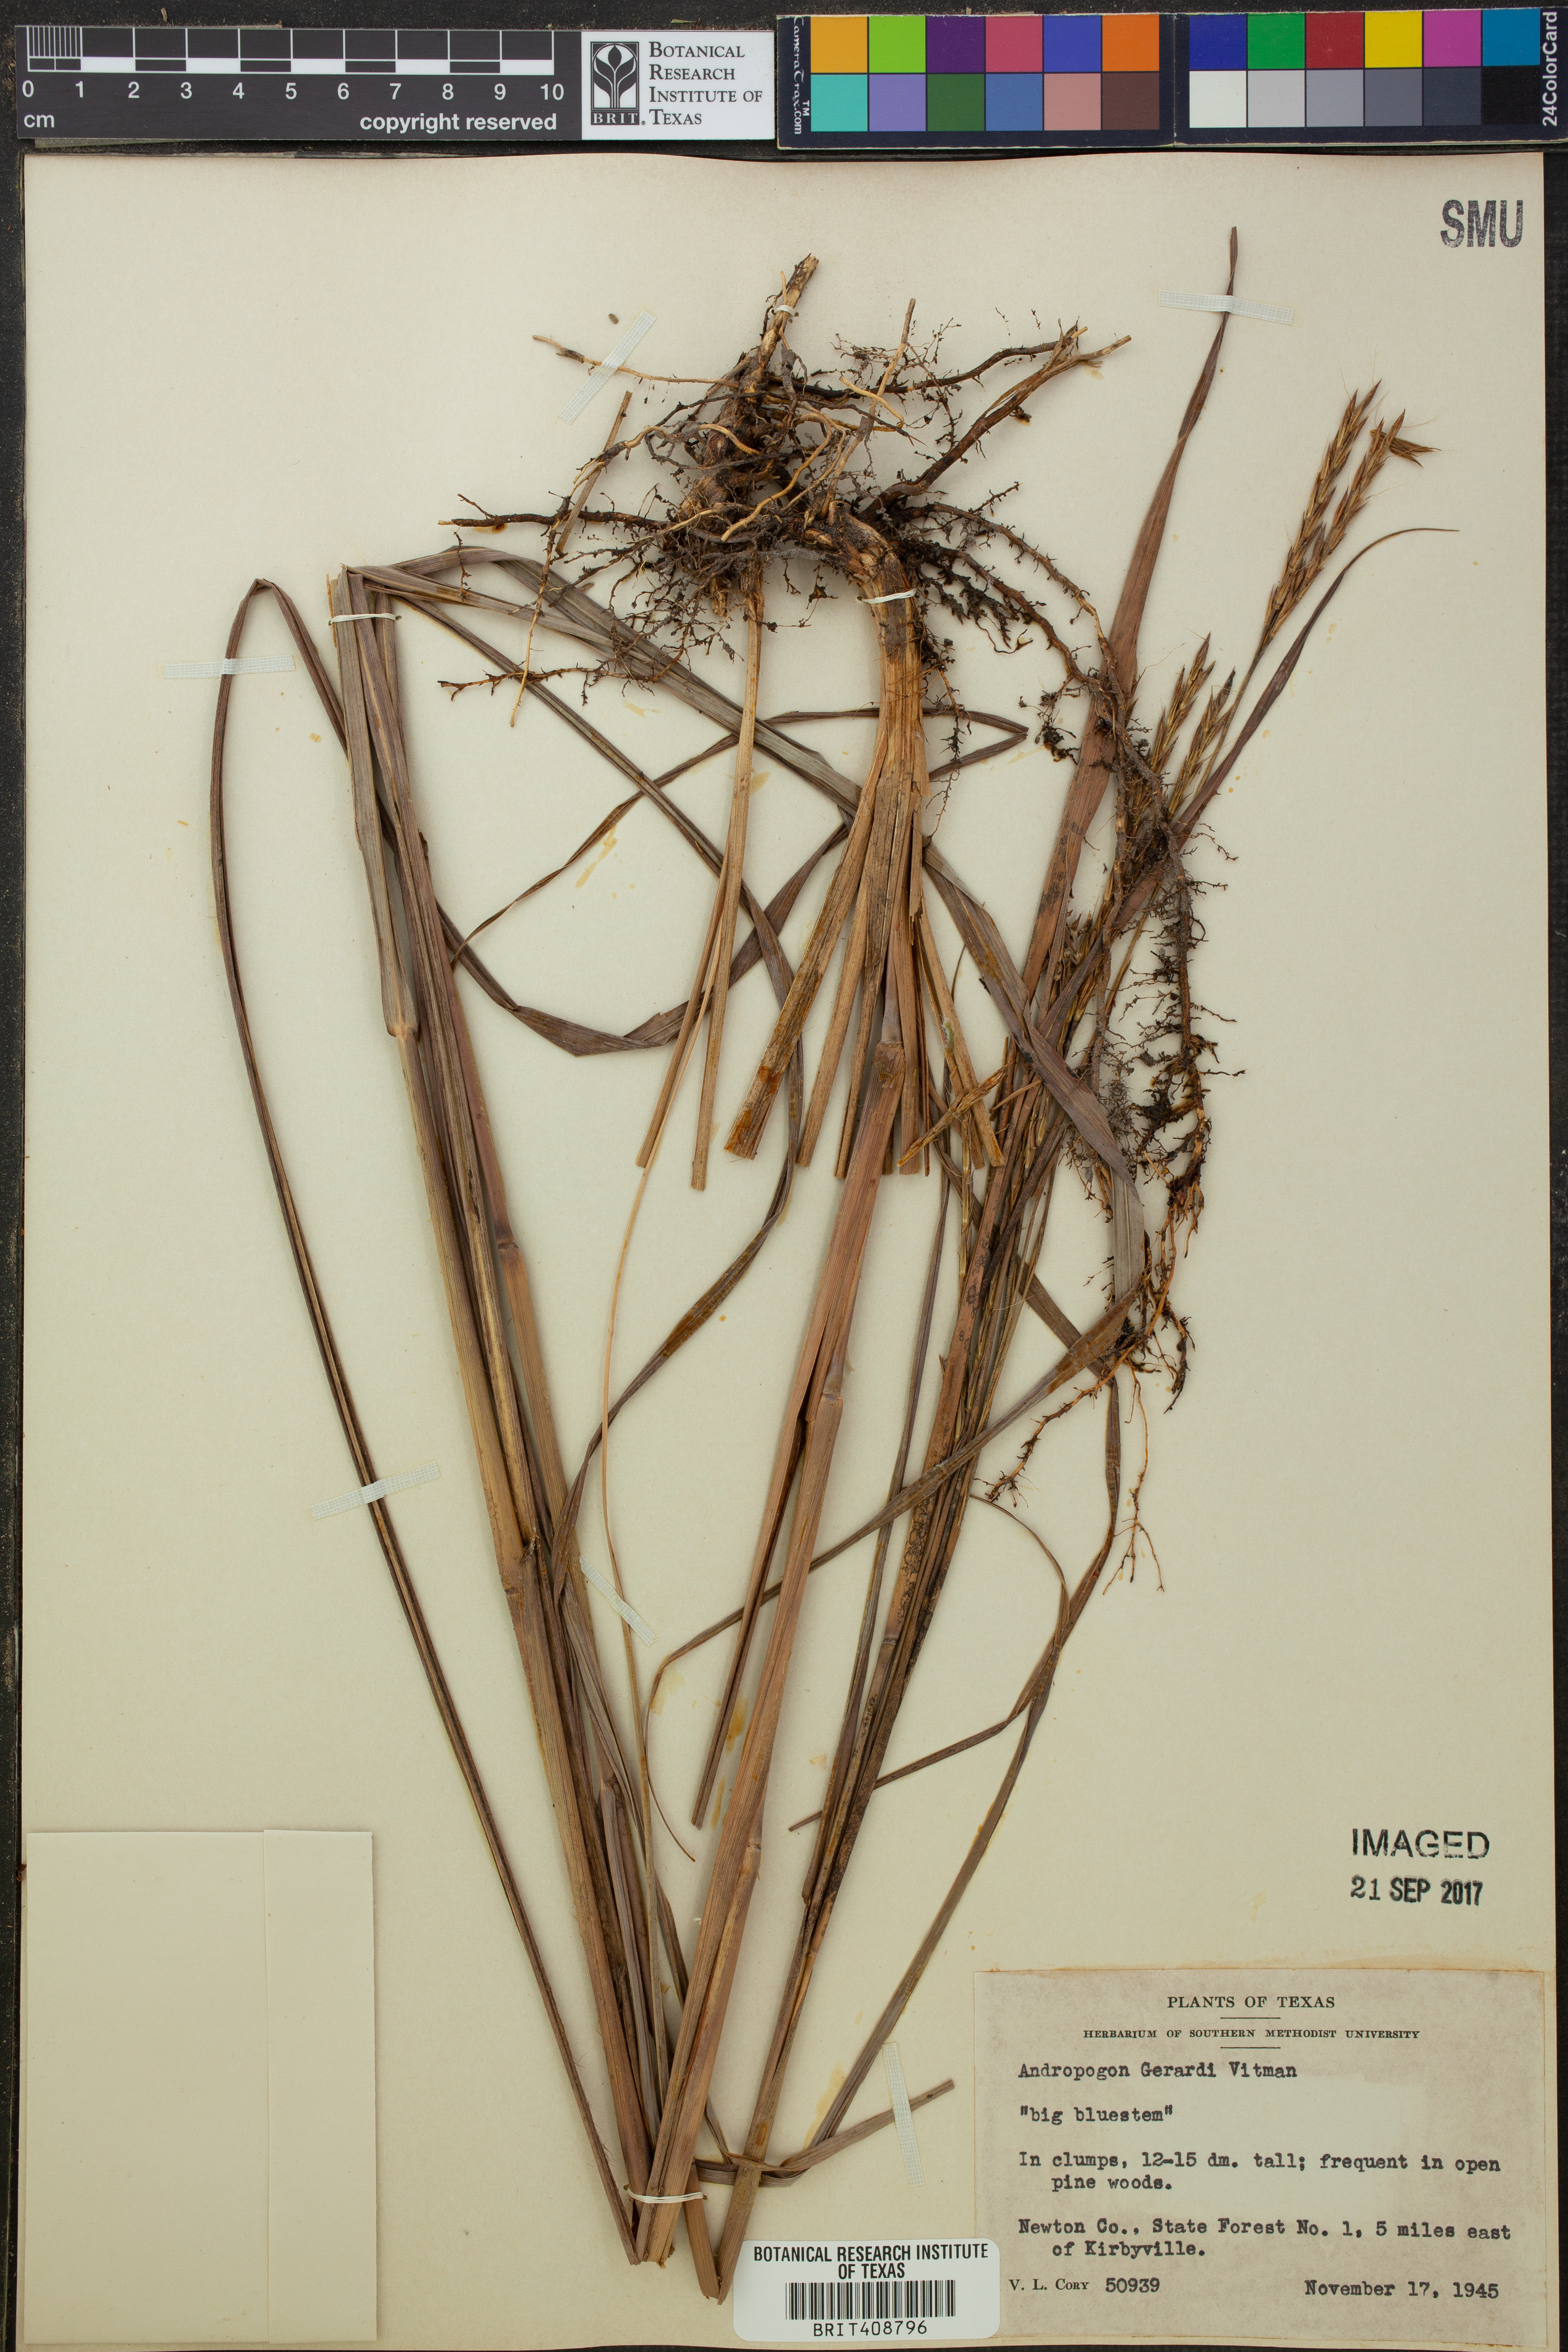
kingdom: Plantae
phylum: Tracheophyta
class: Liliopsida
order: Poales
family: Poaceae
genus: Andropogon
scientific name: Andropogon gerardi
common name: Big bluestem
